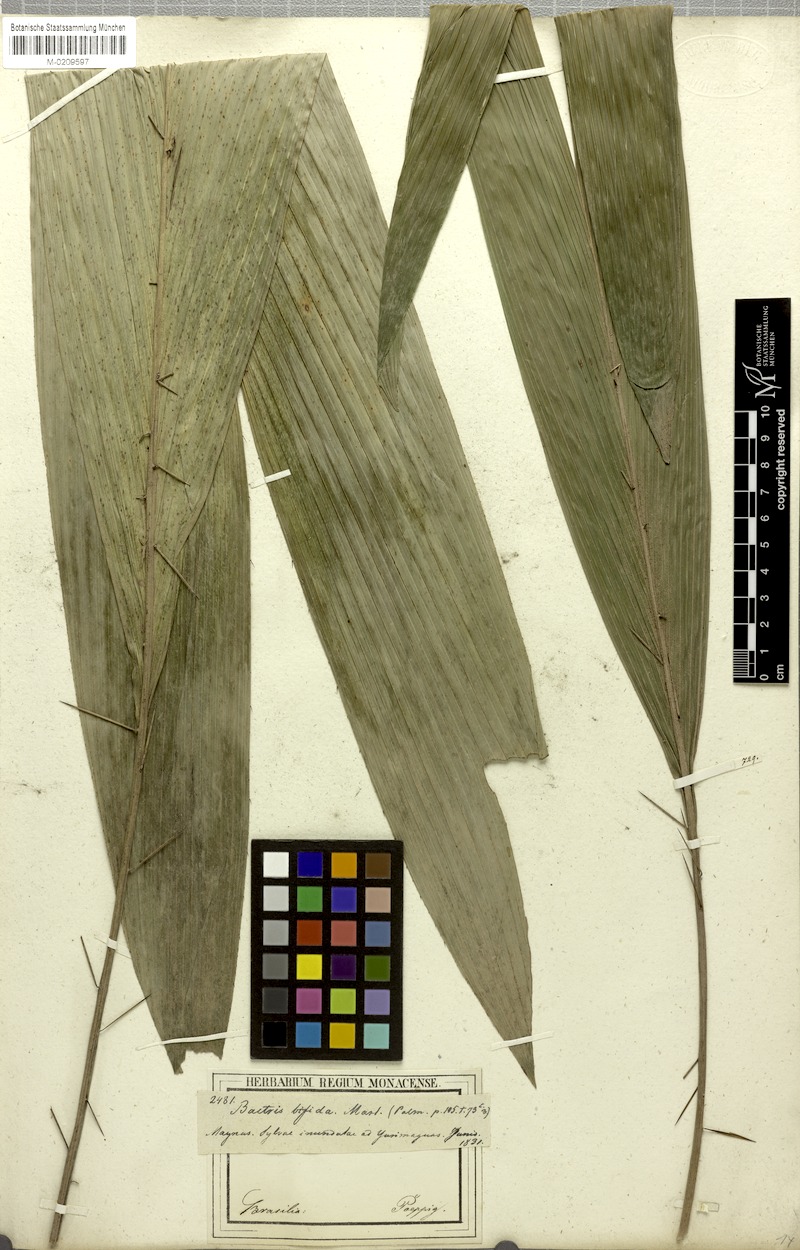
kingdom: Plantae
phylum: Tracheophyta
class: Liliopsida
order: Arecales
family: Arecaceae
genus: Bactris
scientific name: Bactris bifida
